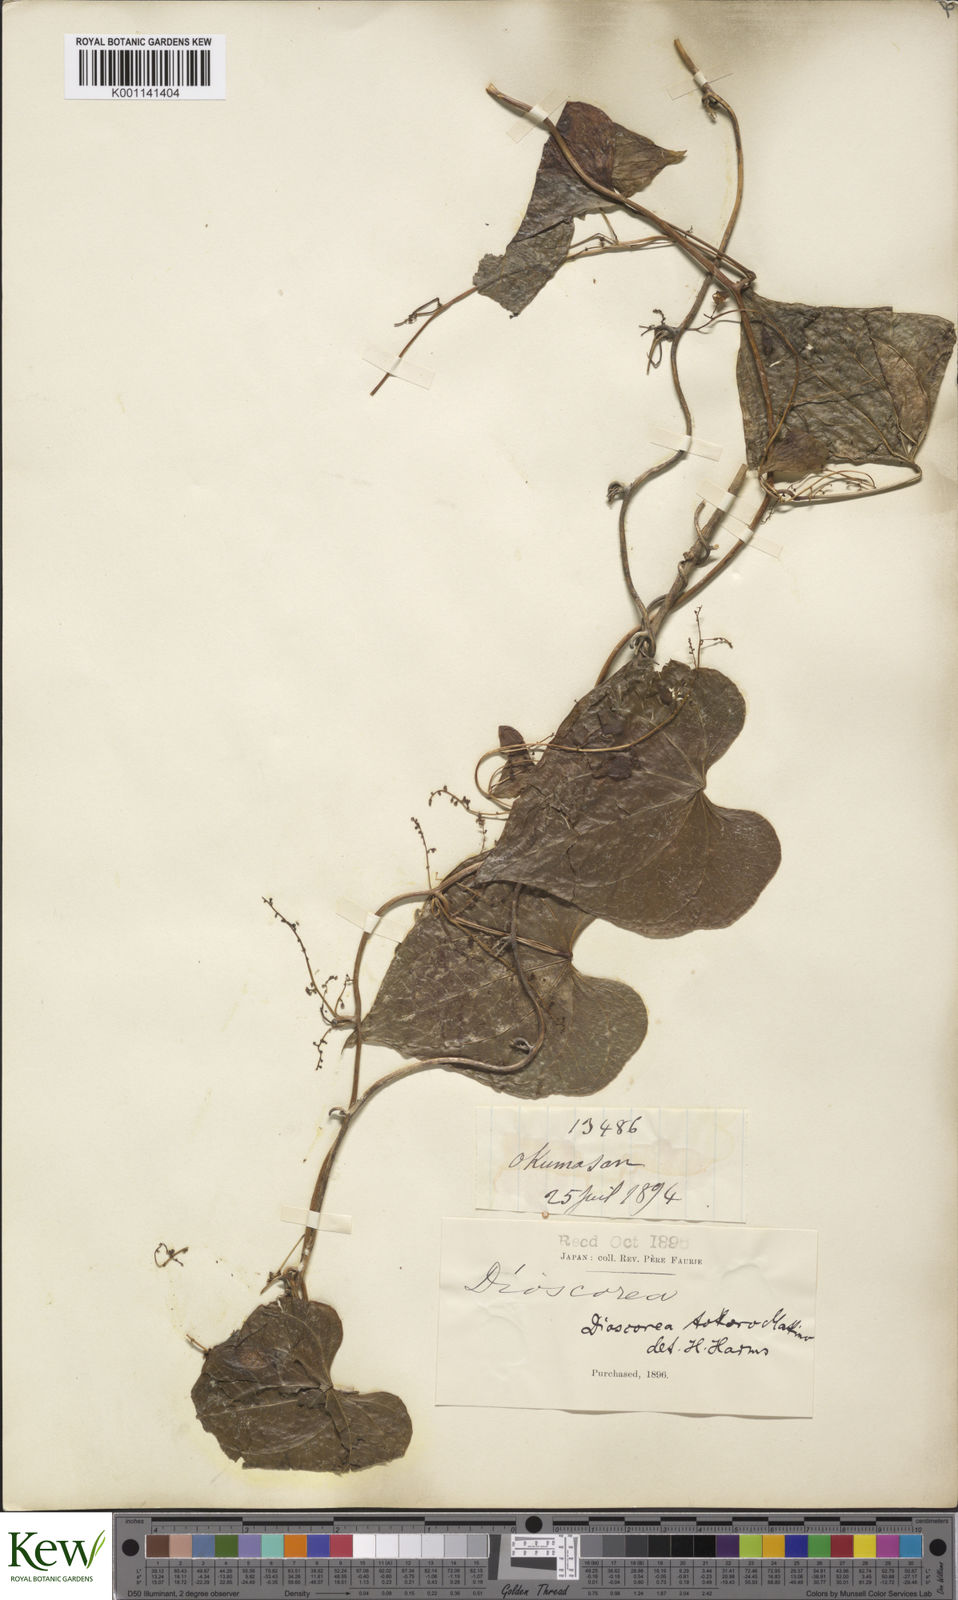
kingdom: Plantae
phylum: Tracheophyta
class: Liliopsida
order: Dioscoreales
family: Dioscoreaceae
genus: Dioscorea
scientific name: Dioscorea tokoro
